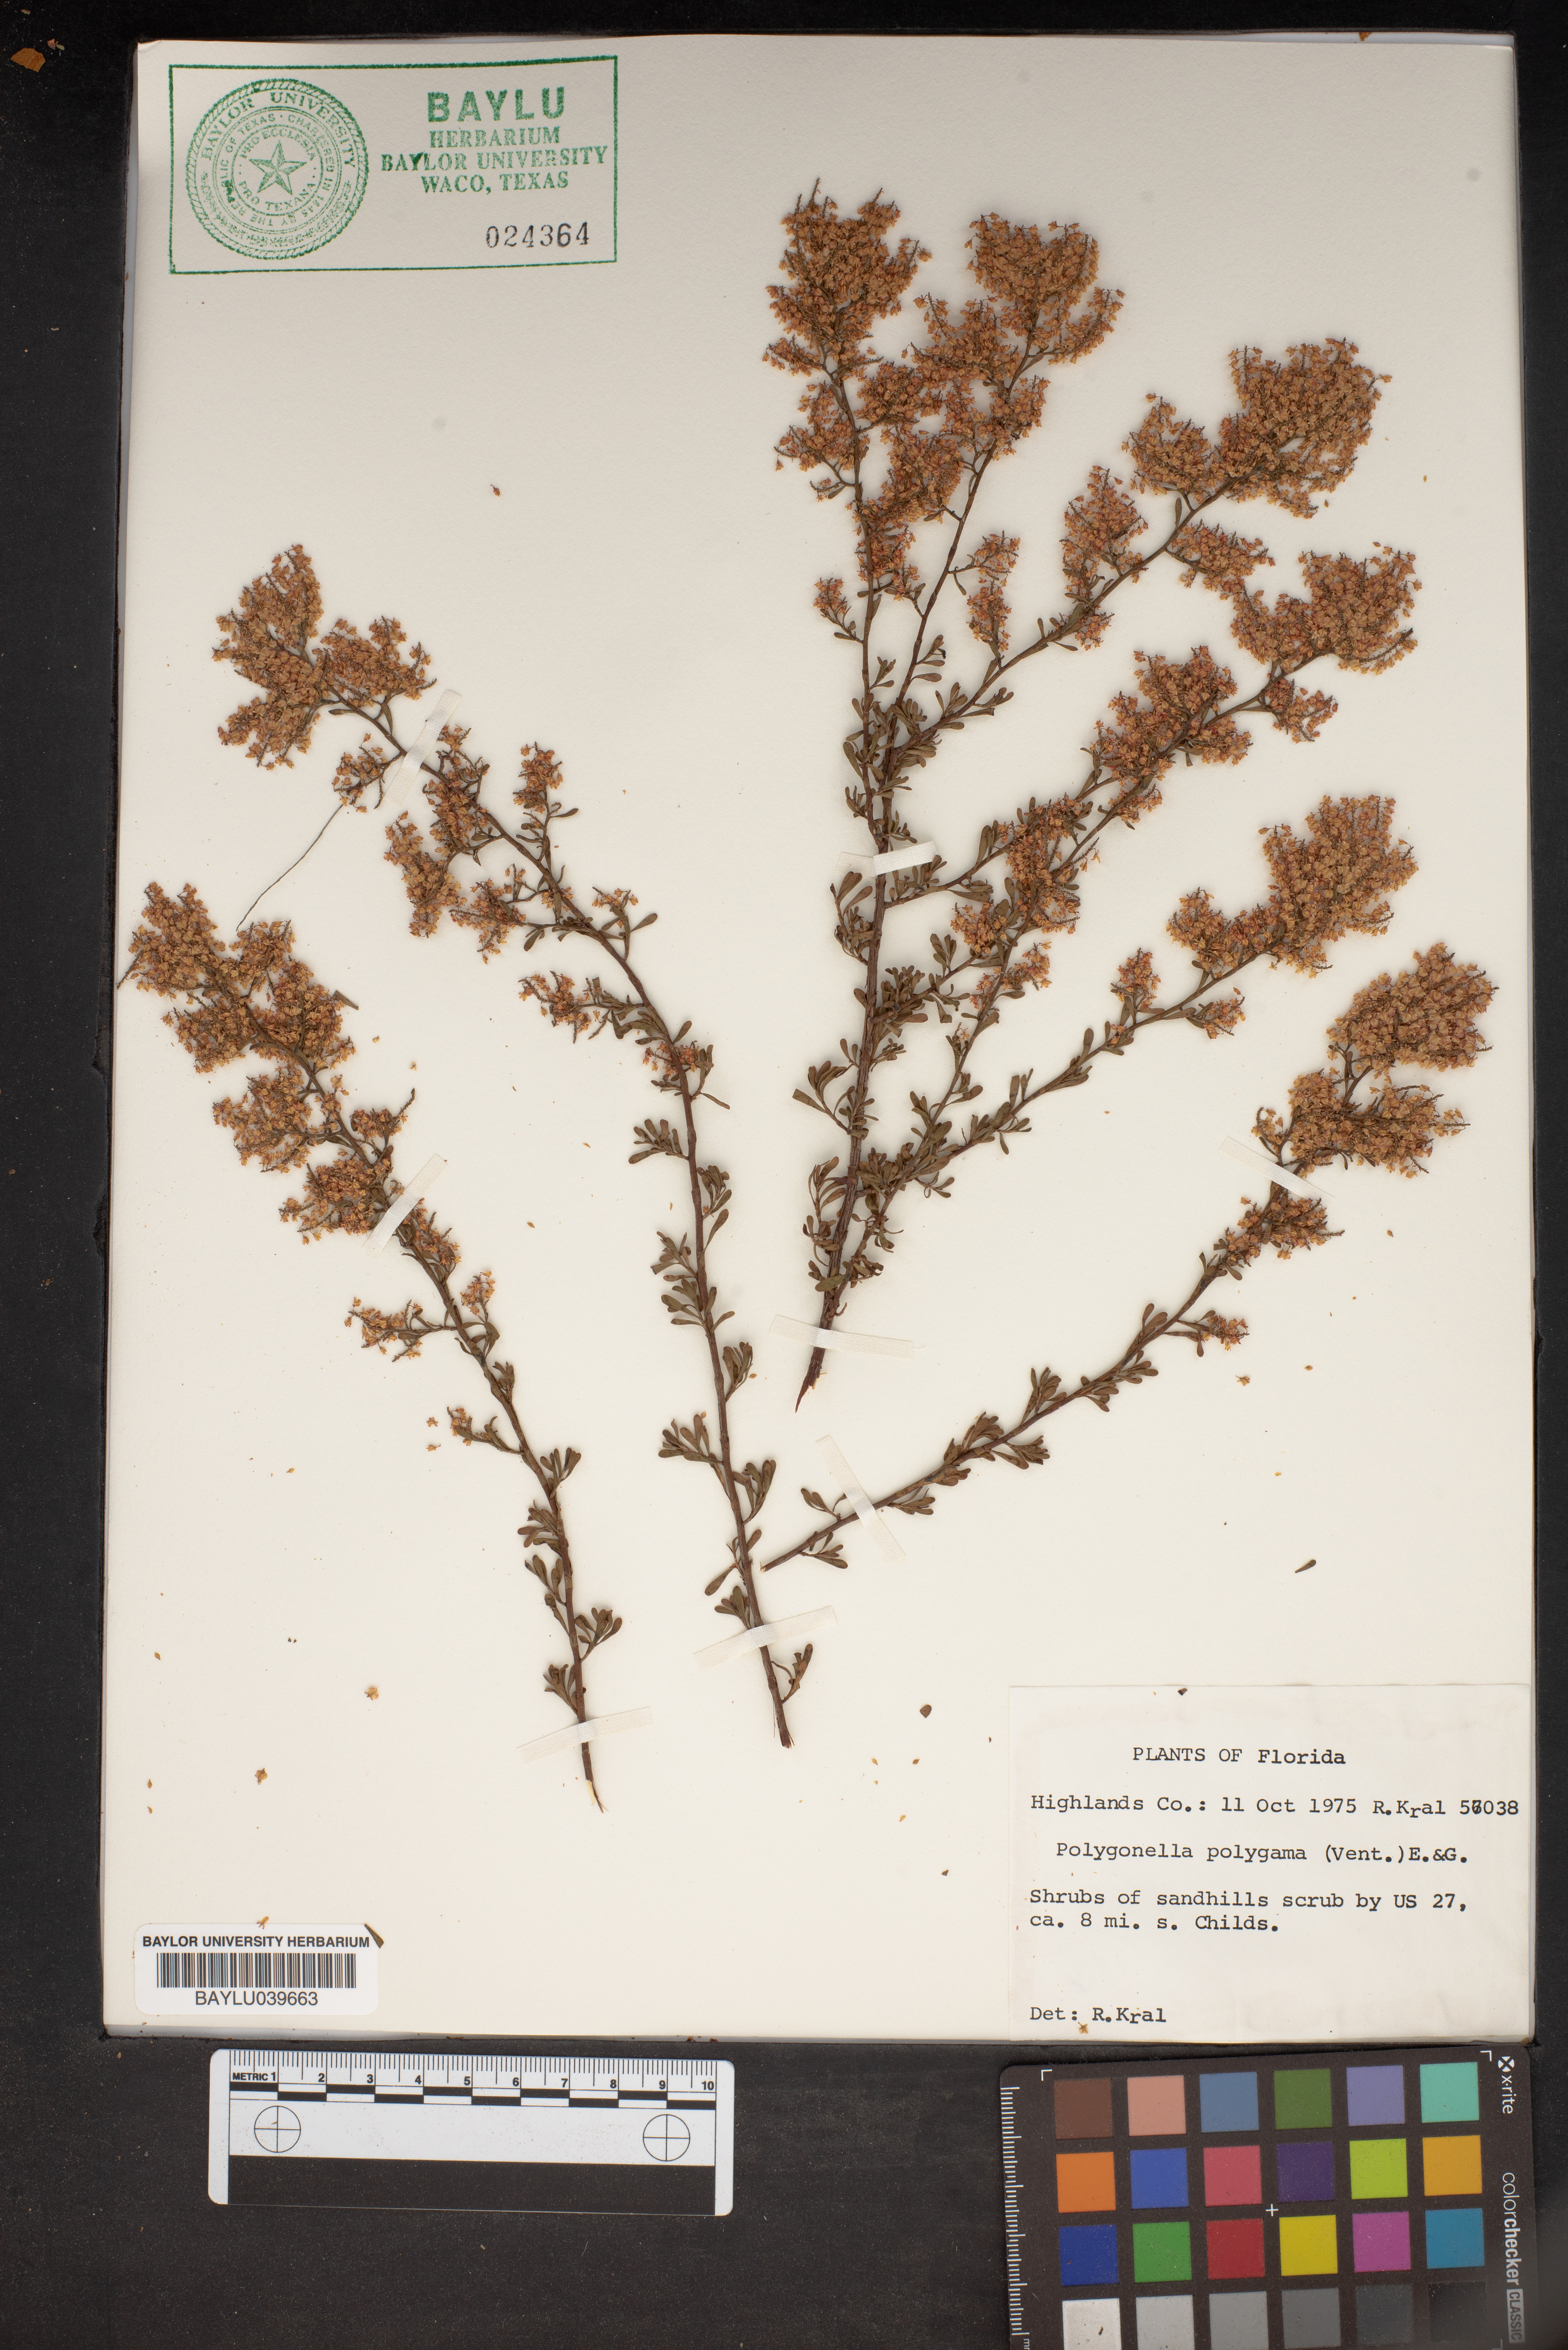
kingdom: Plantae
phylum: Tracheophyta
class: Magnoliopsida
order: Caryophyllales
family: Polygonaceae
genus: Polygonella
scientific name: Polygonella polygama
